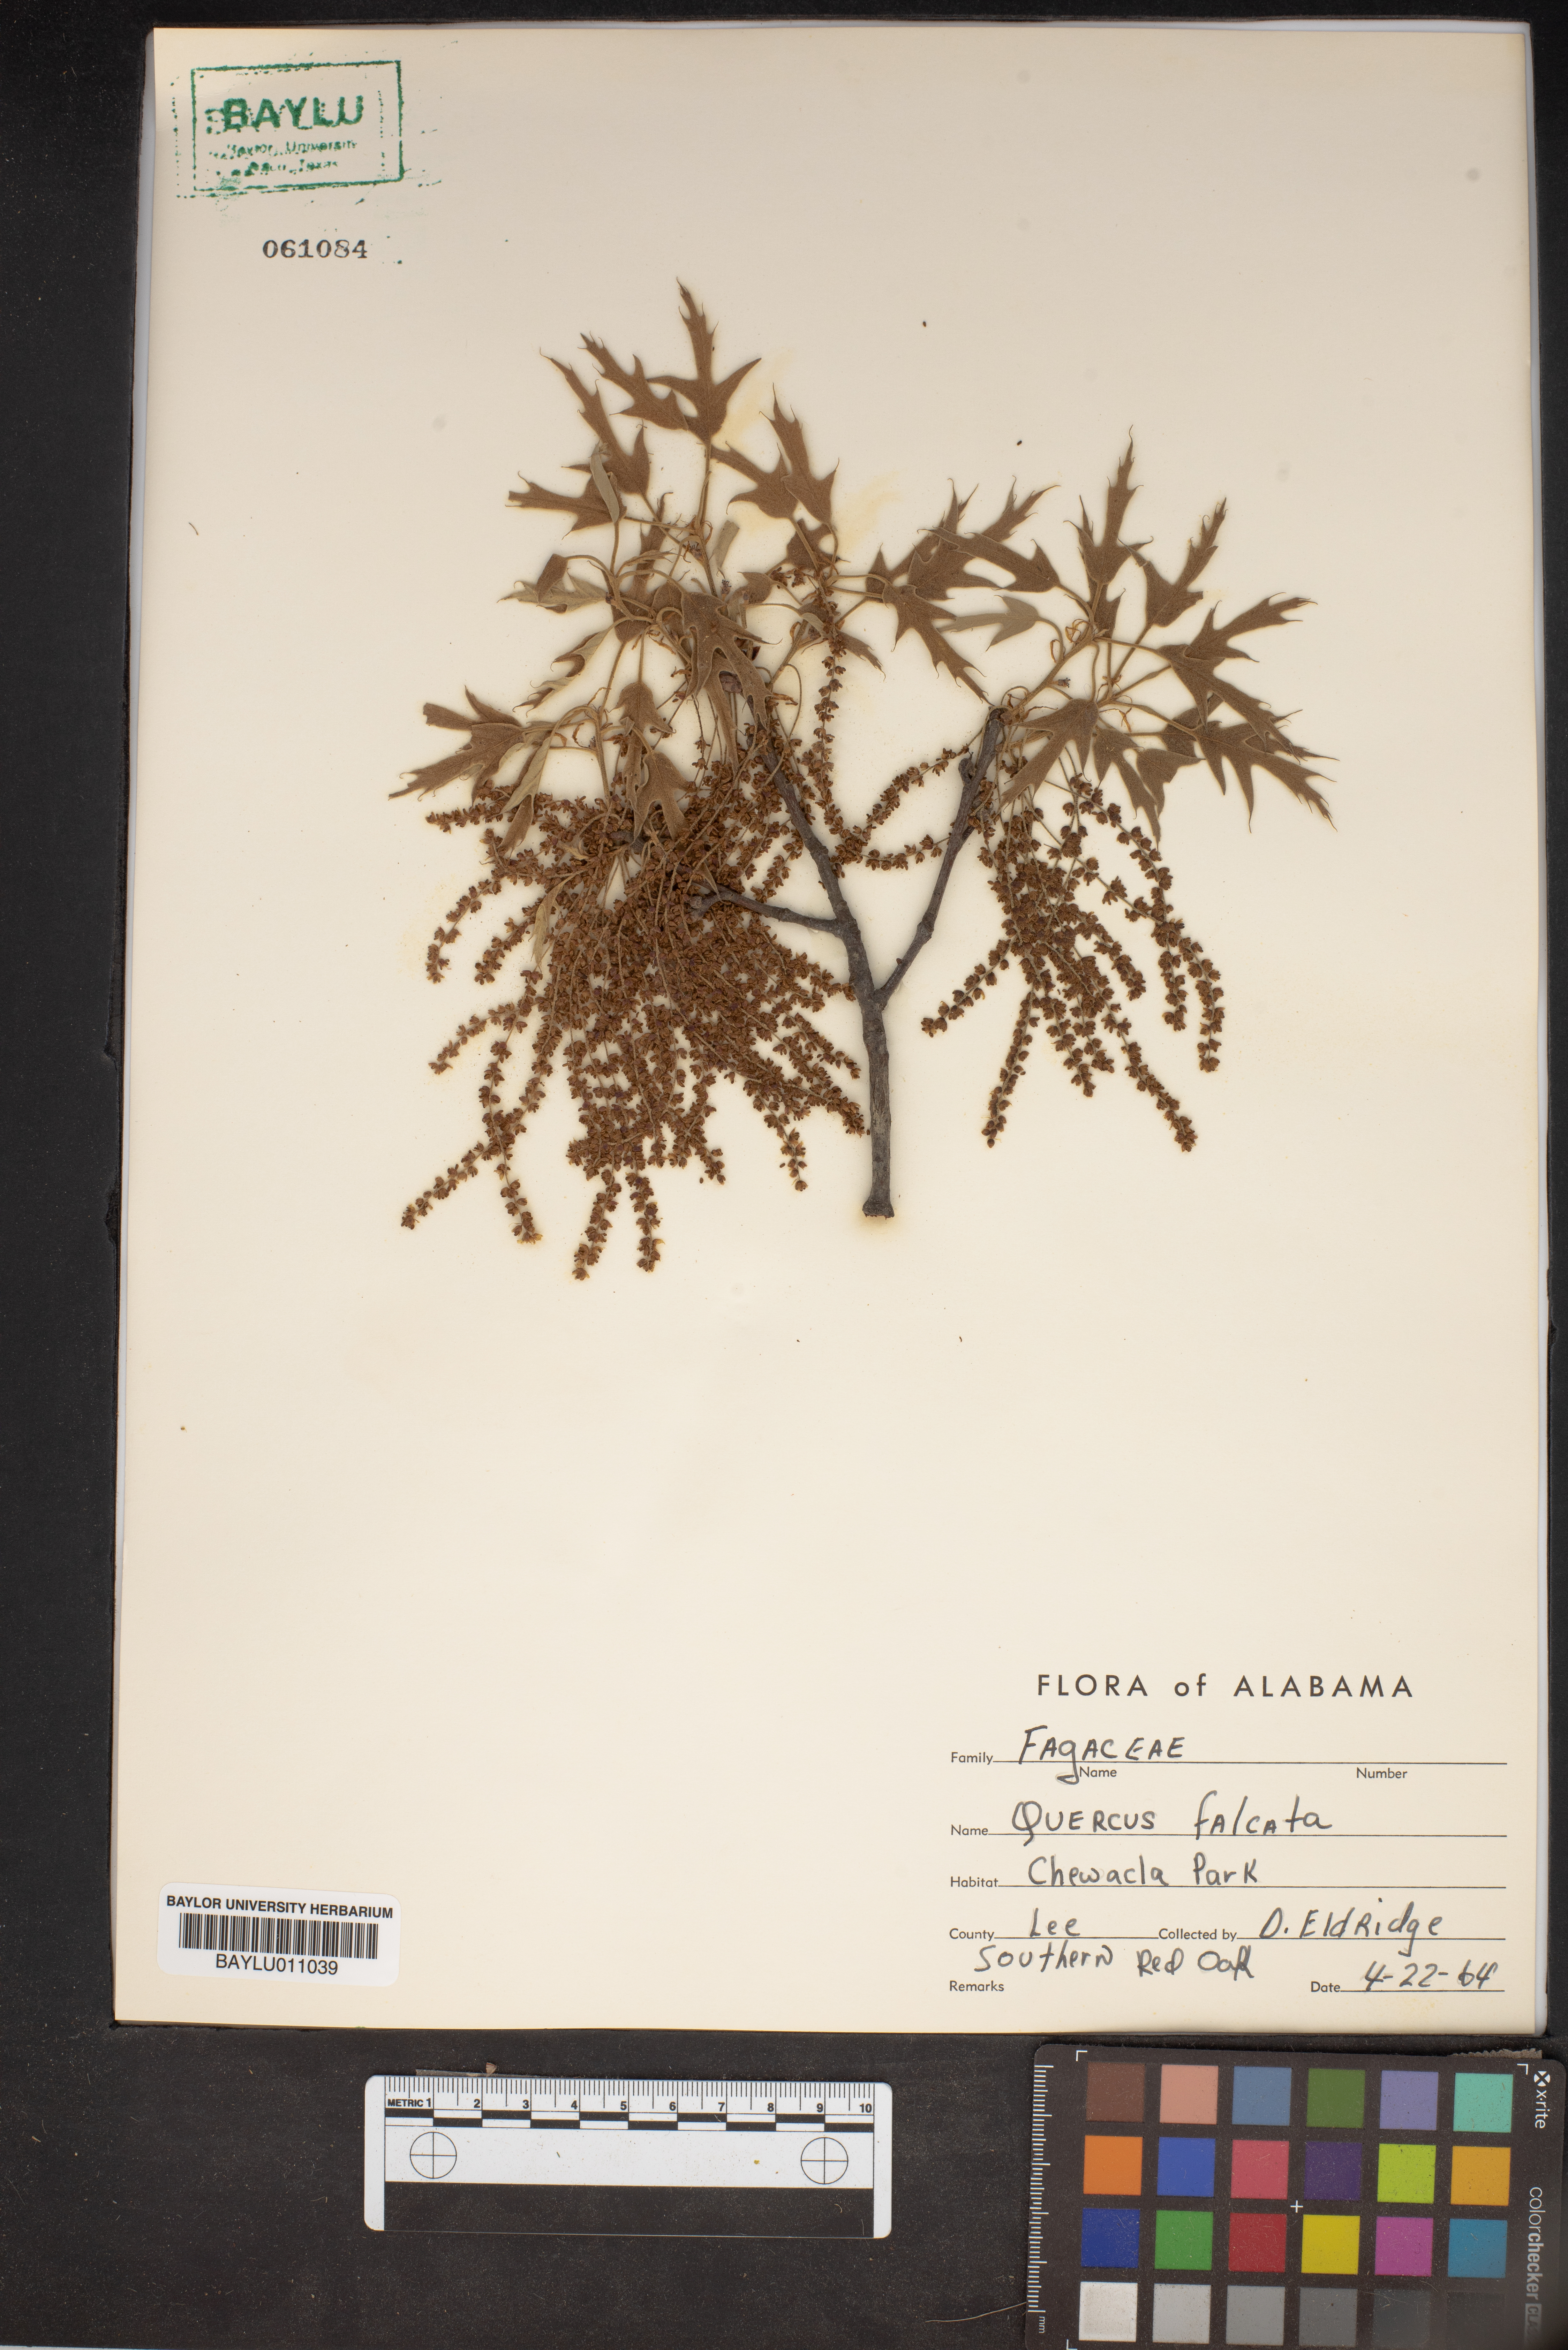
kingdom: Plantae
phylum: Tracheophyta
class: Magnoliopsida
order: Fagales
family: Fagaceae
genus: Quercus
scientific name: Quercus falcata
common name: Southern red oak
